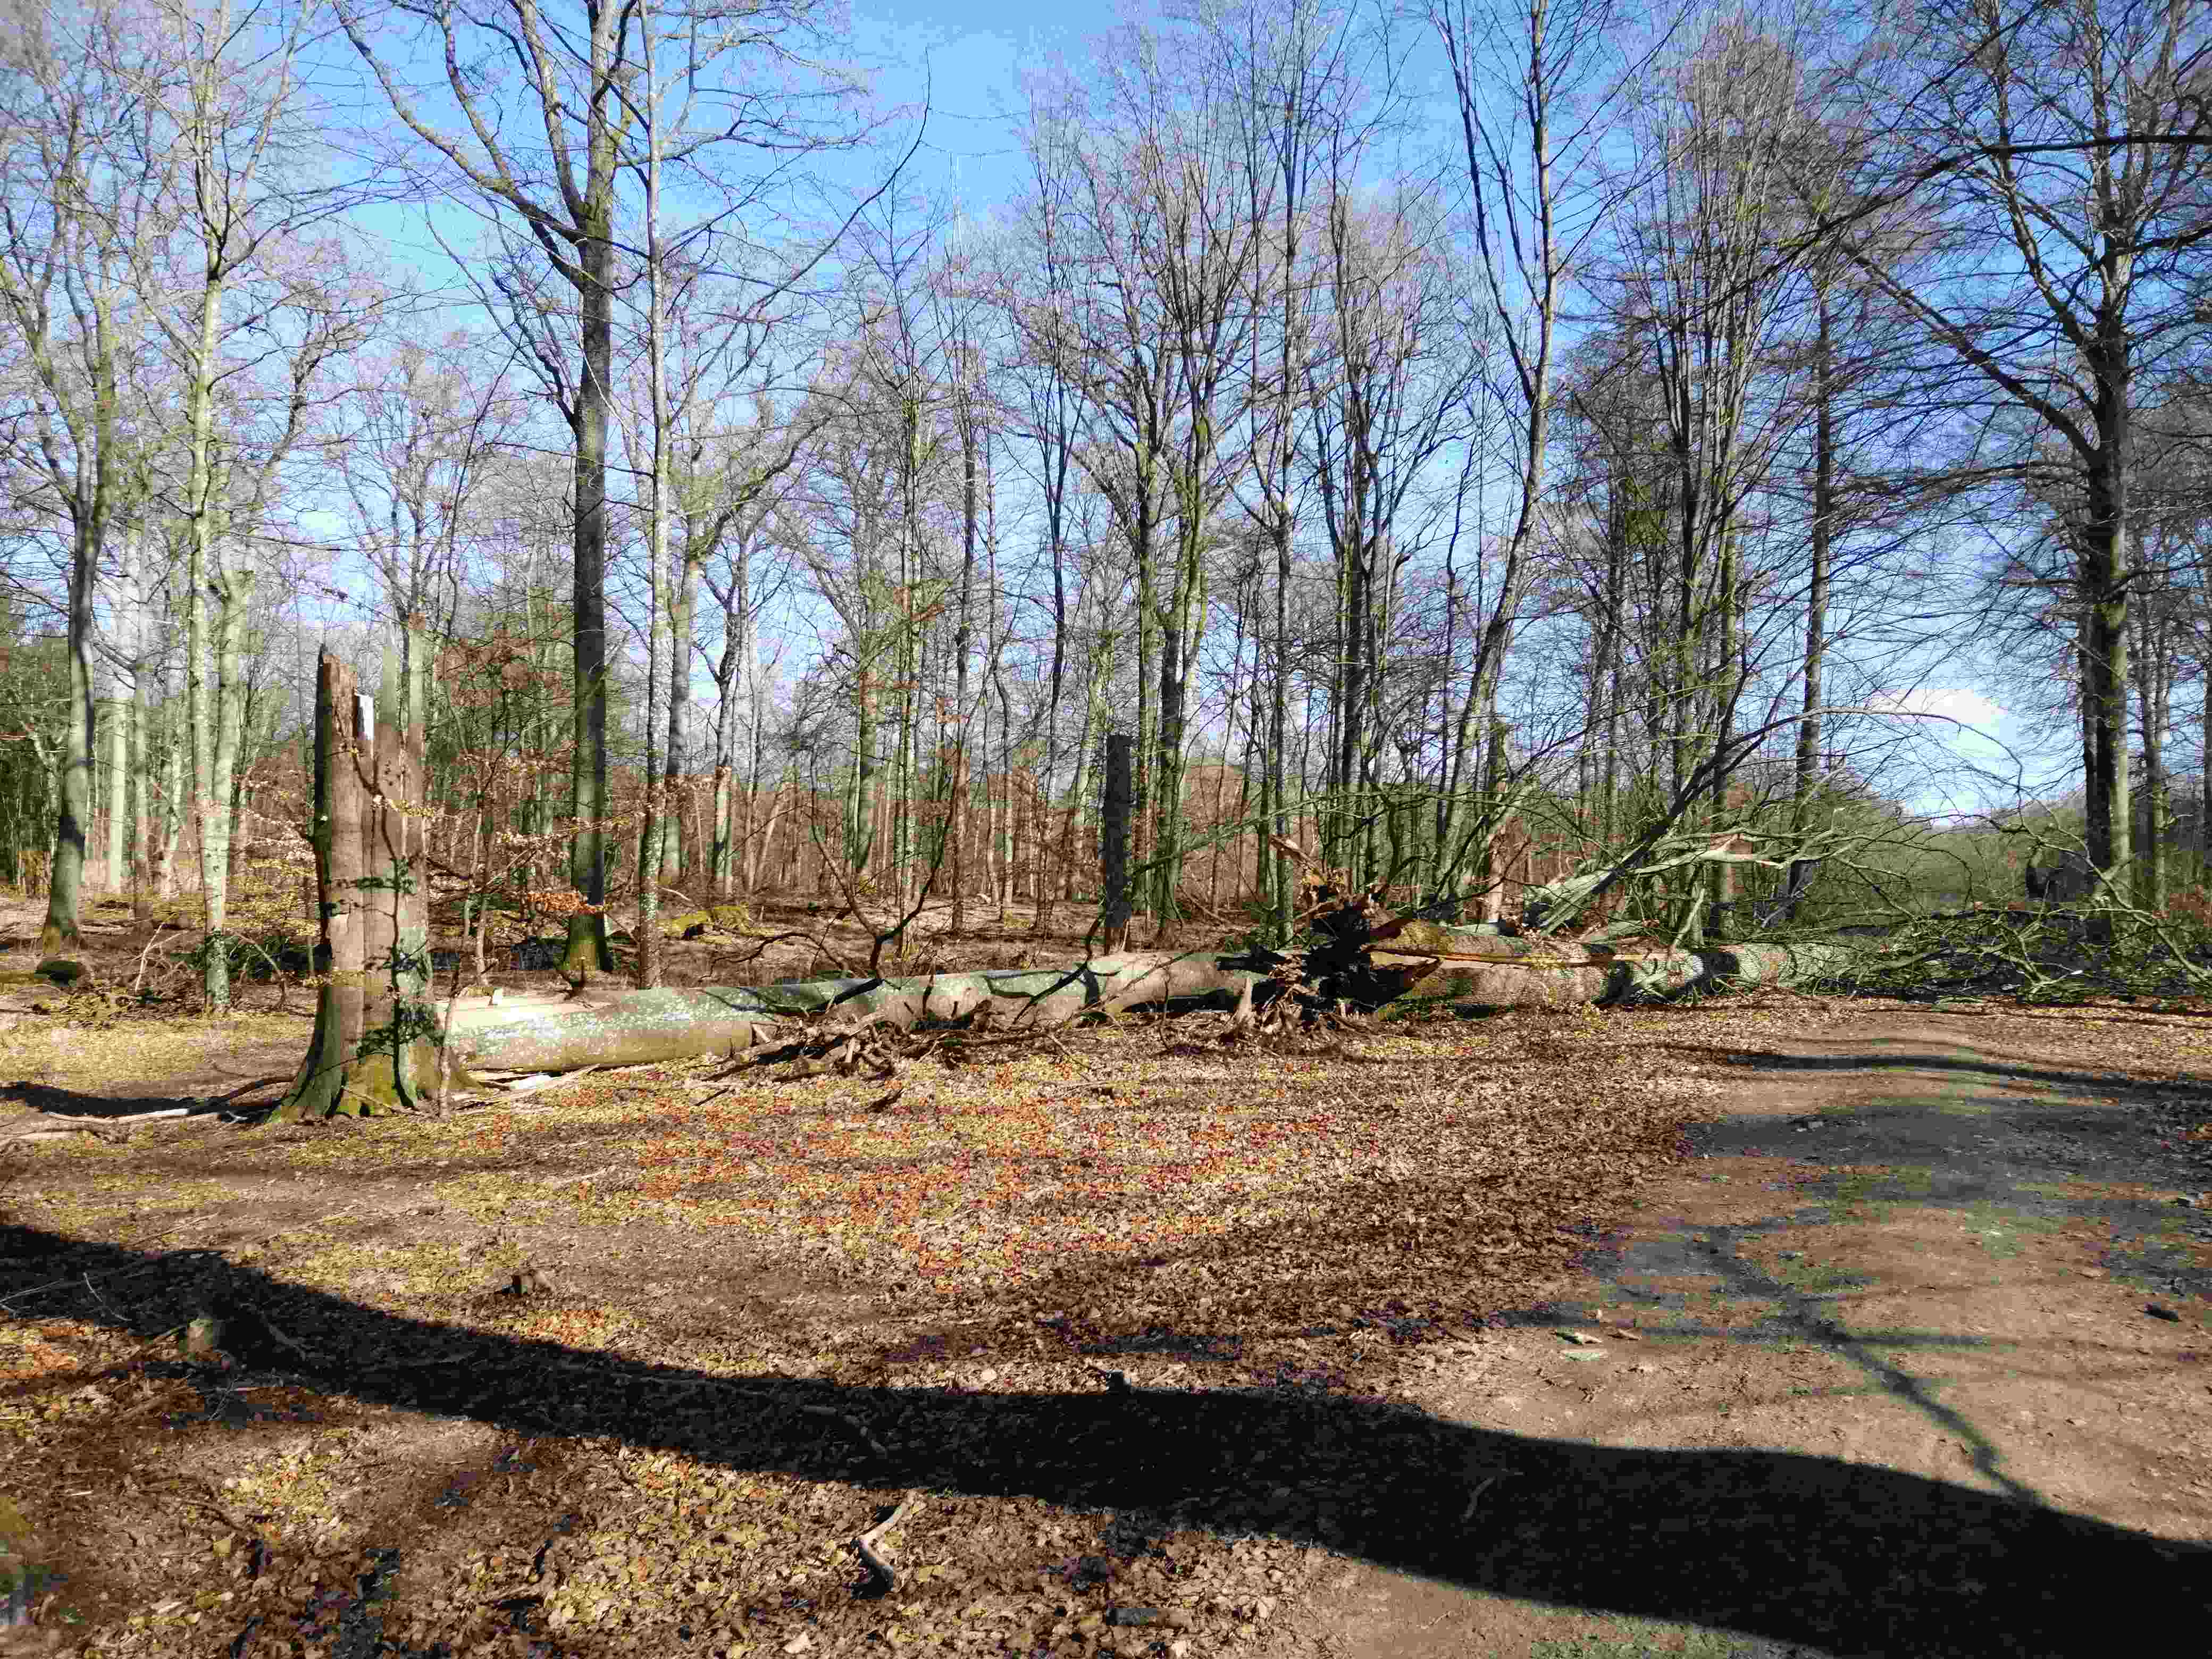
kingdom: Fungi
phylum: Ascomycota
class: Dothideomycetes
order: Hysteriales
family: Hysteriaceae
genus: Hysterium
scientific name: Hysterium
